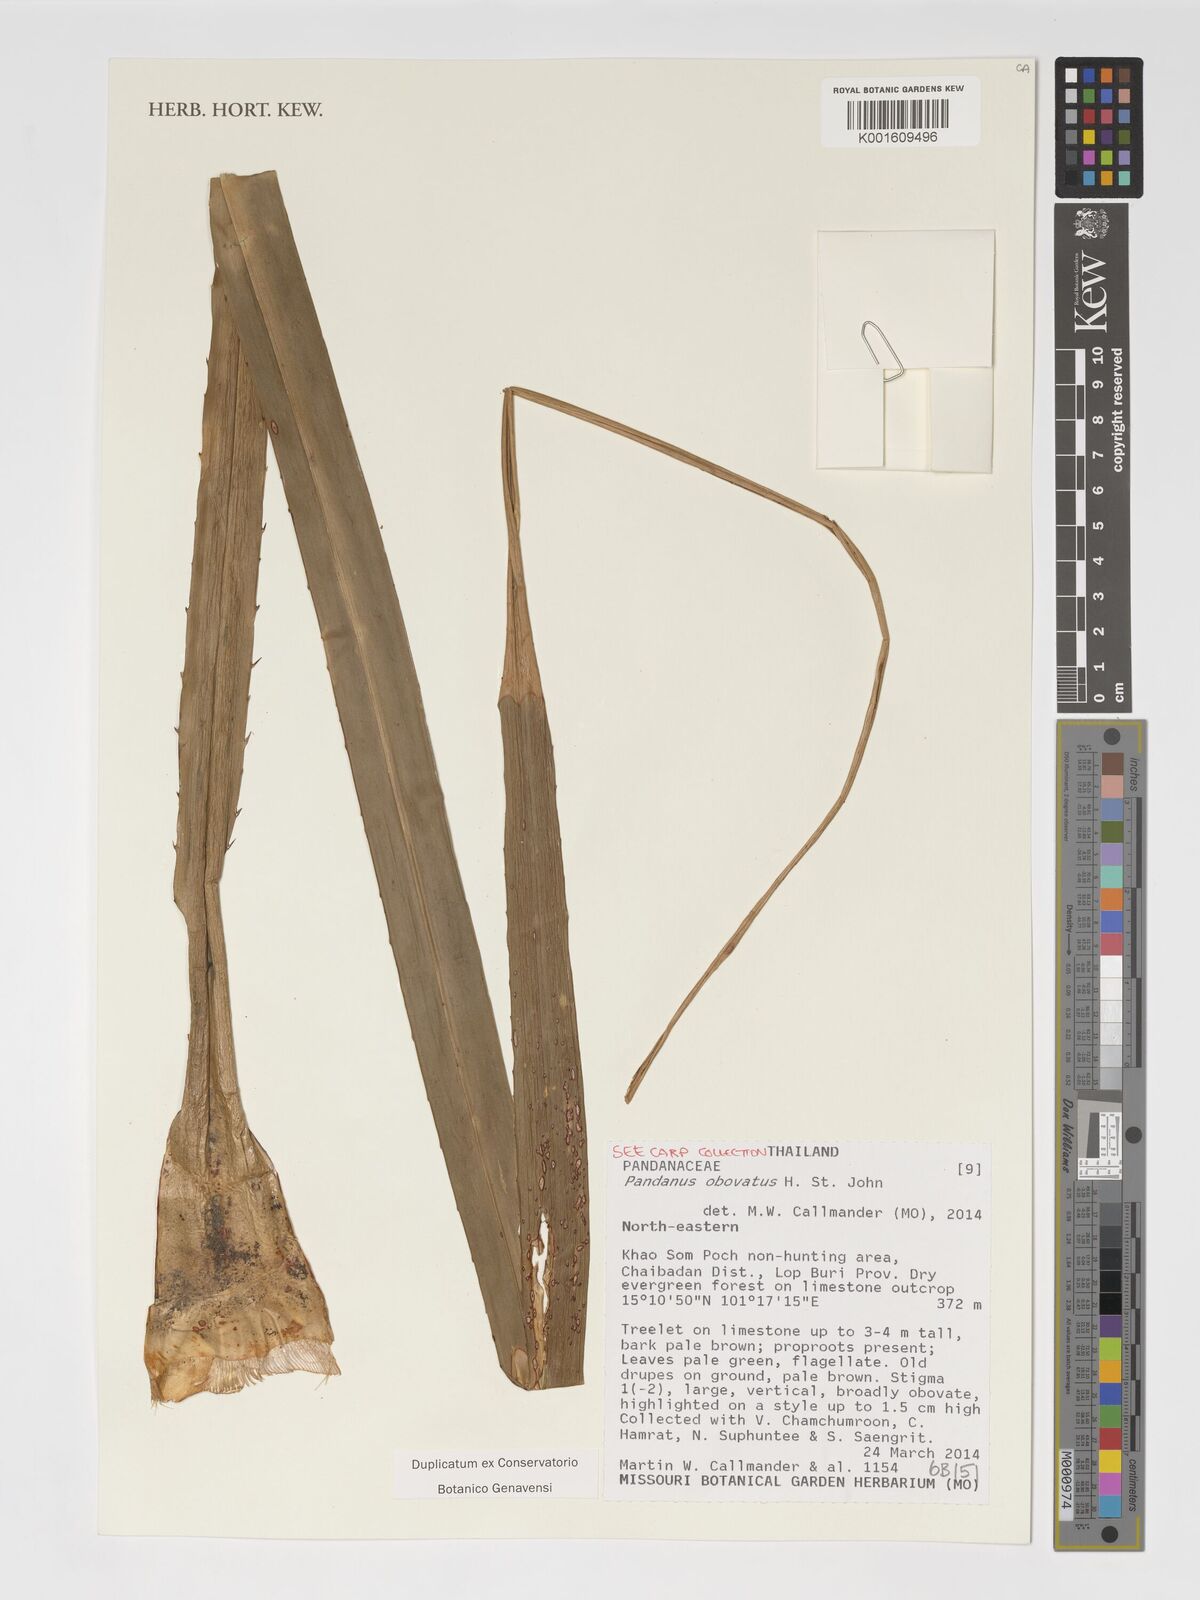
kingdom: Plantae
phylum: Tracheophyta
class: Liliopsida
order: Pandanales
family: Pandanaceae
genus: Pandanus
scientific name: Pandanus obovatus
